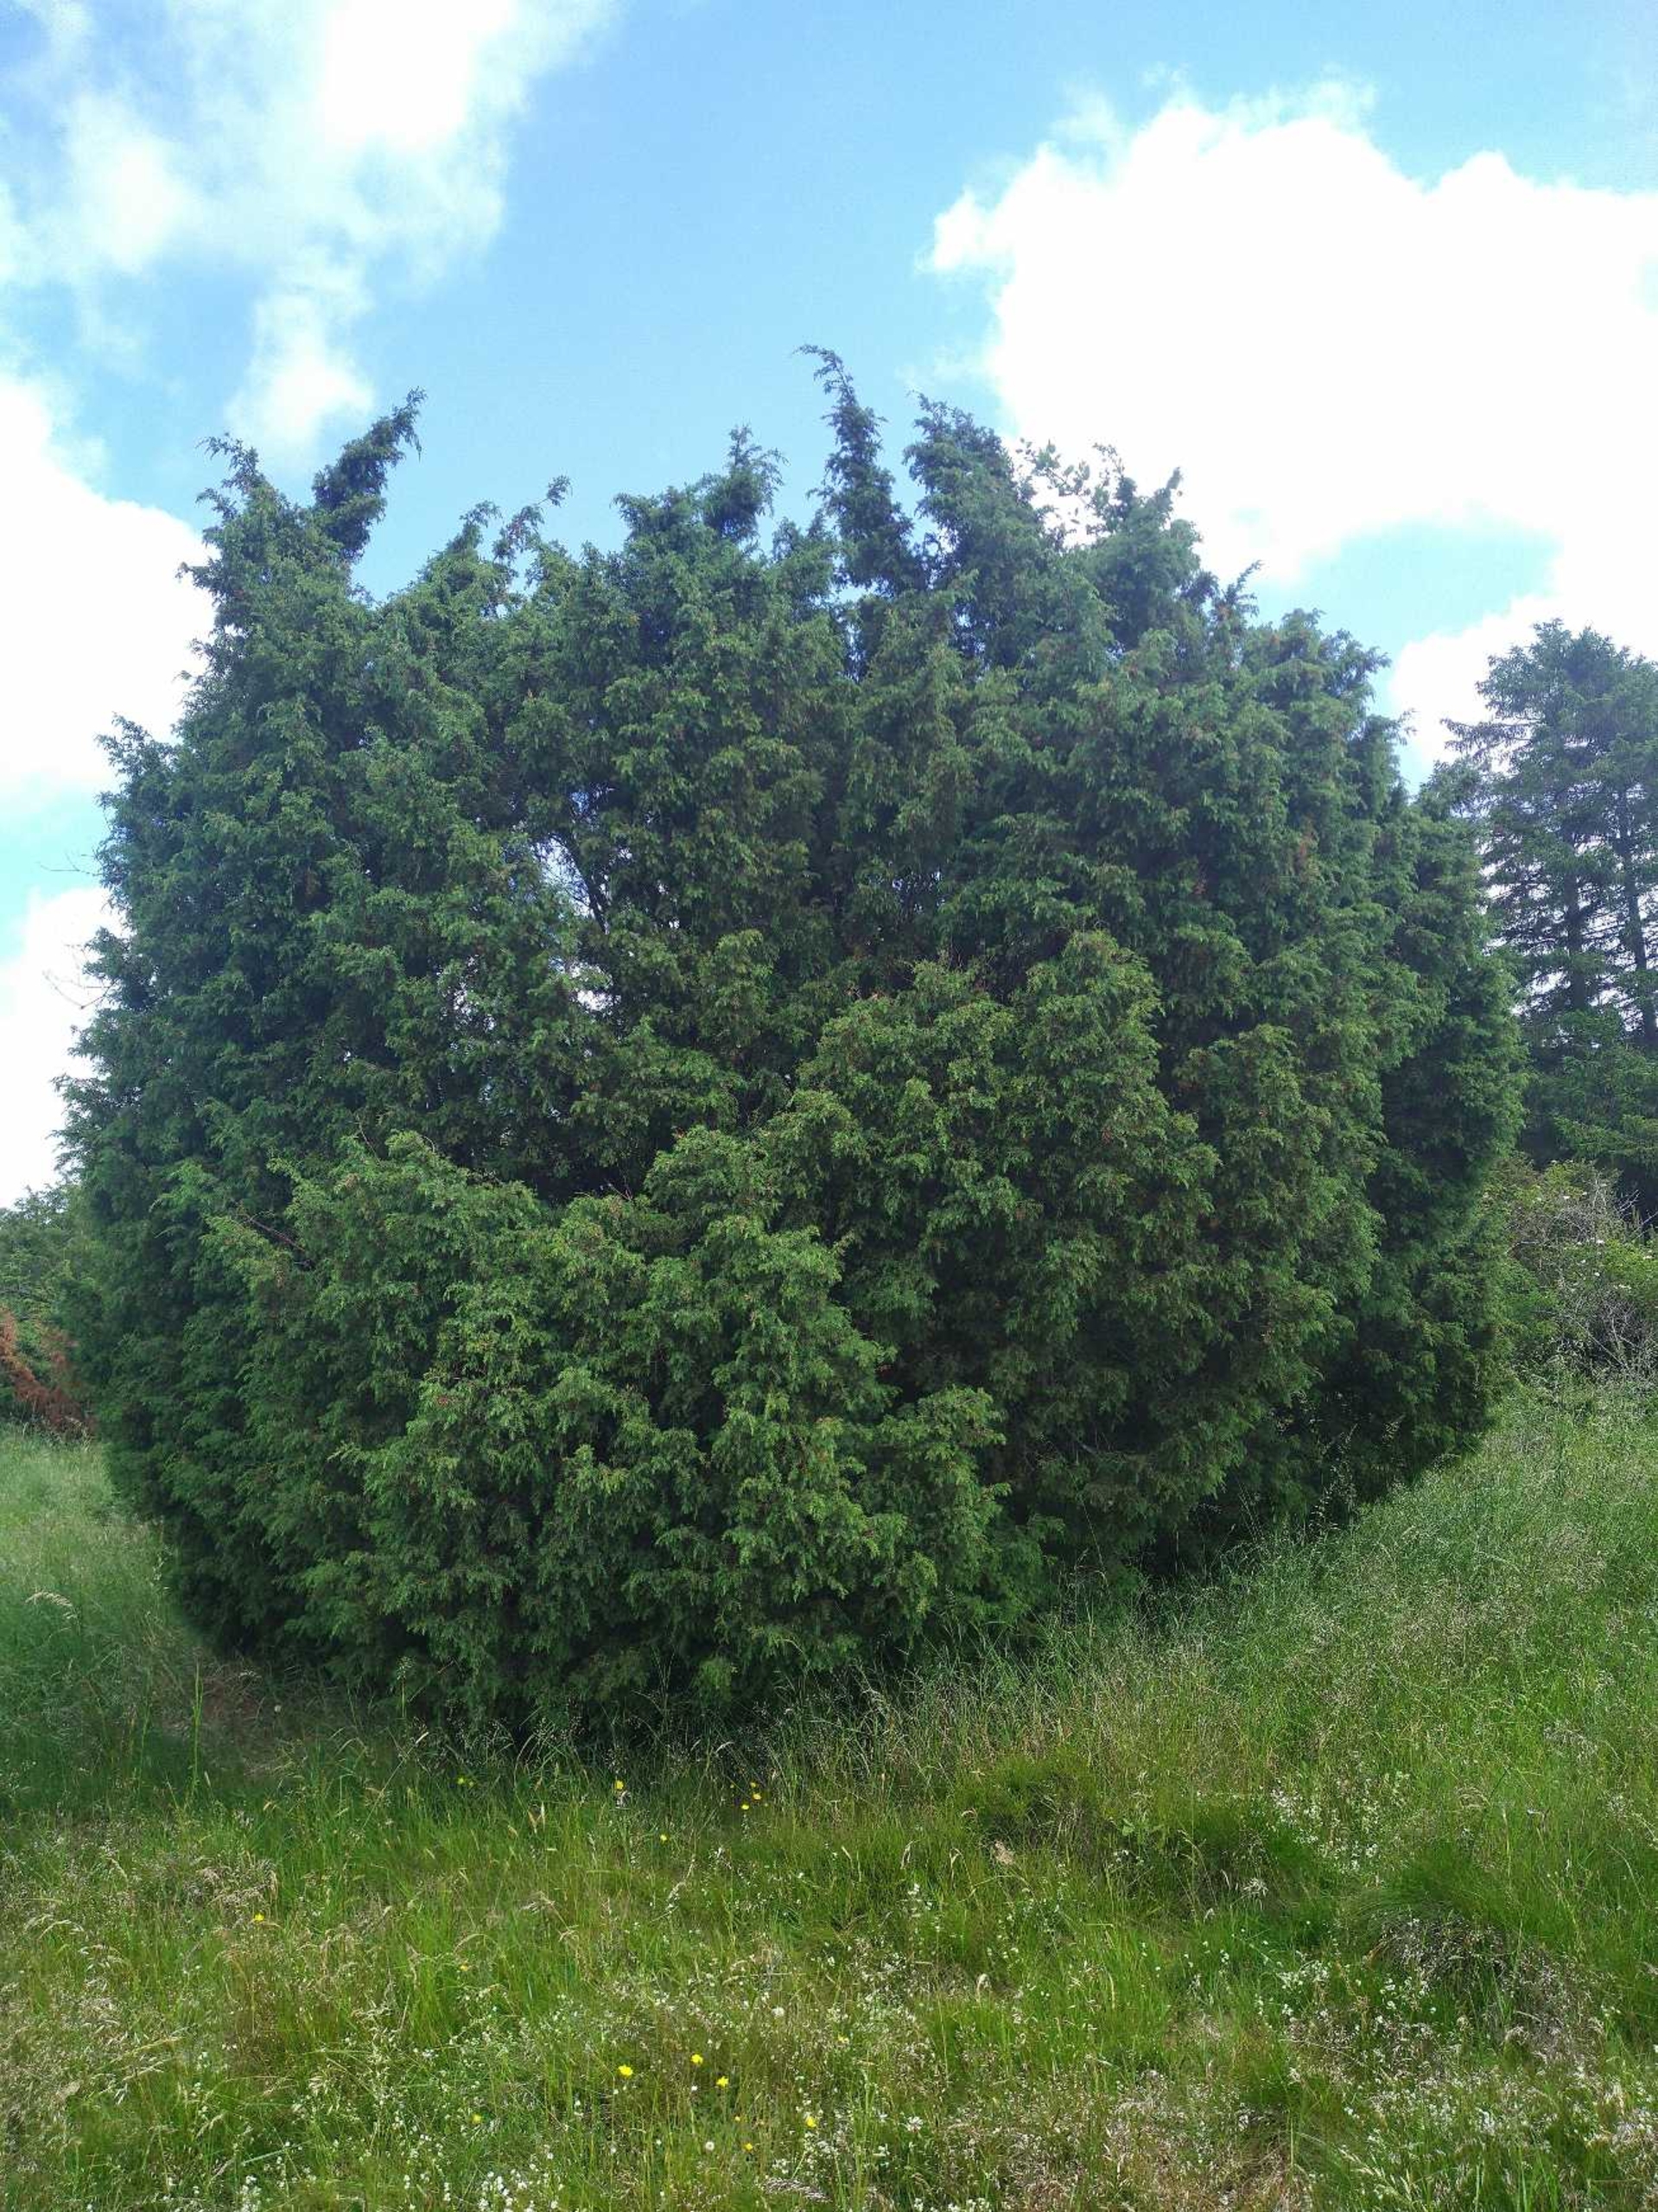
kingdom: Plantae
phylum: Tracheophyta
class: Pinopsida
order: Pinales
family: Cupressaceae
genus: Juniperus
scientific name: Juniperus communis
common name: Almindelig ene
